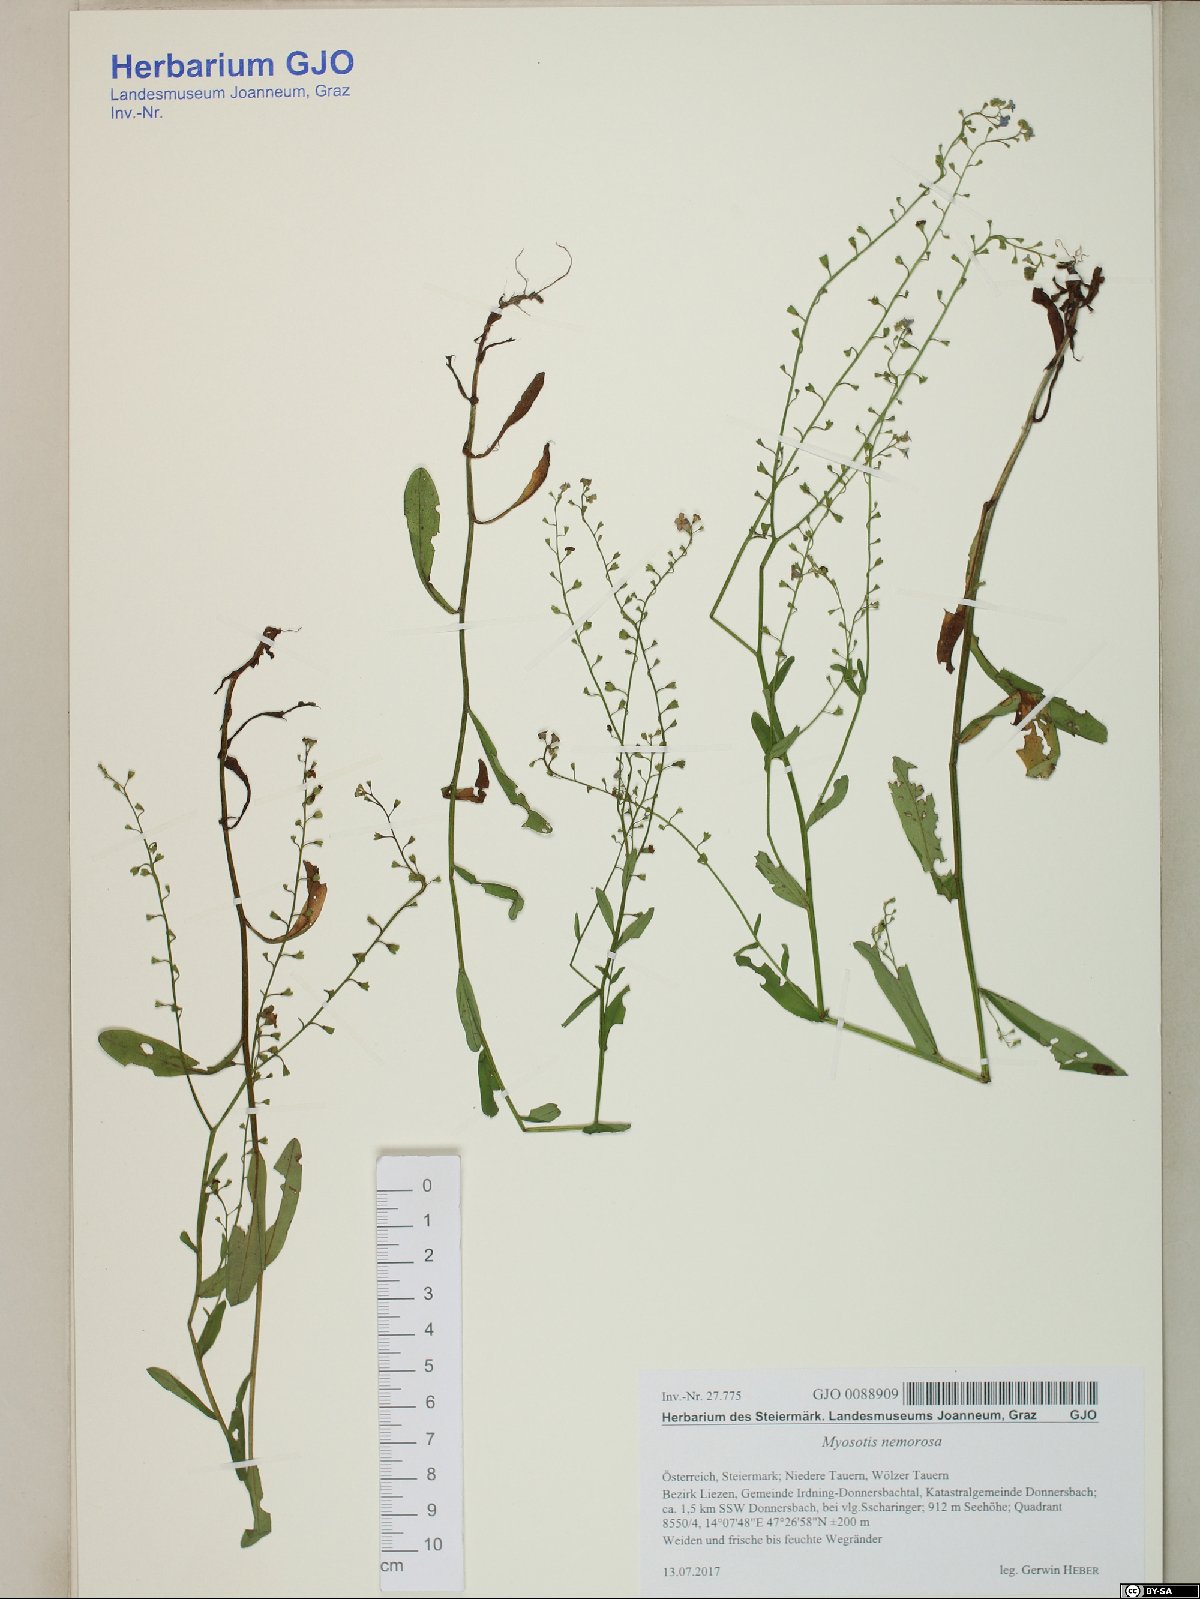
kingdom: Plantae
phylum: Tracheophyta
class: Magnoliopsida
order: Boraginales
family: Boraginaceae
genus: Myosotis
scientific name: Myosotis nemorosa
